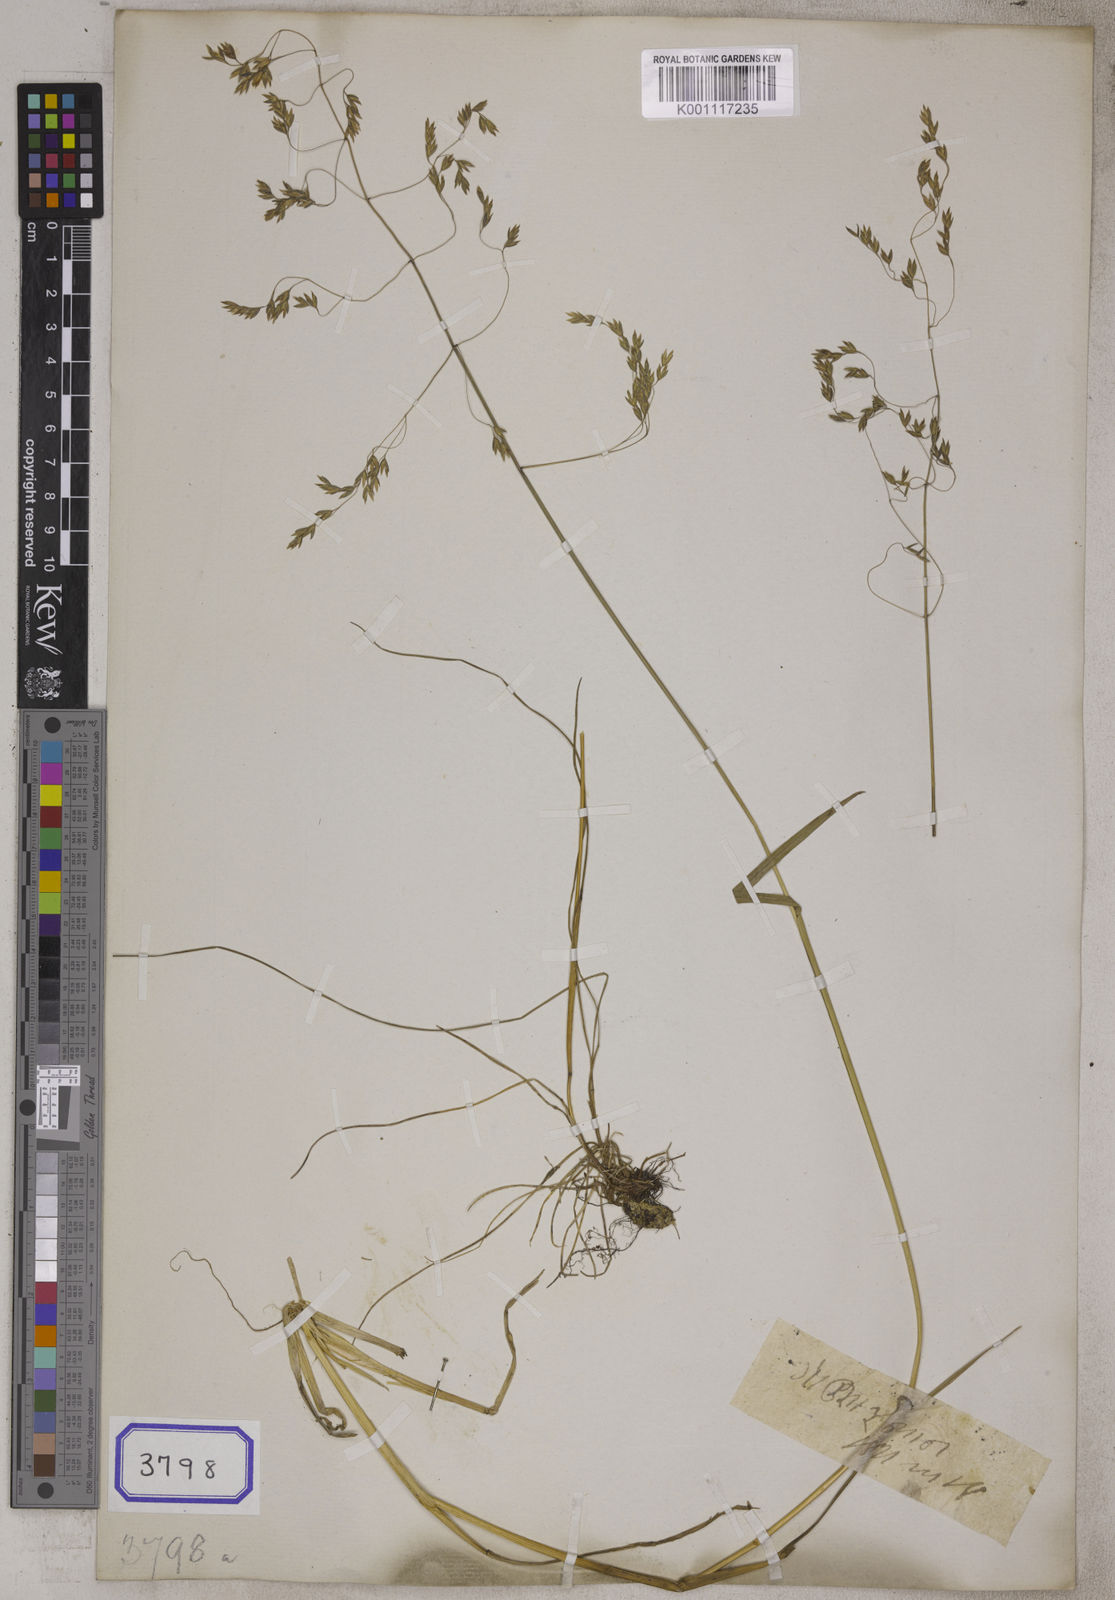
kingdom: Plantae
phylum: Tracheophyta
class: Liliopsida
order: Poales
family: Poaceae
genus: Festuca
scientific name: Festuca
